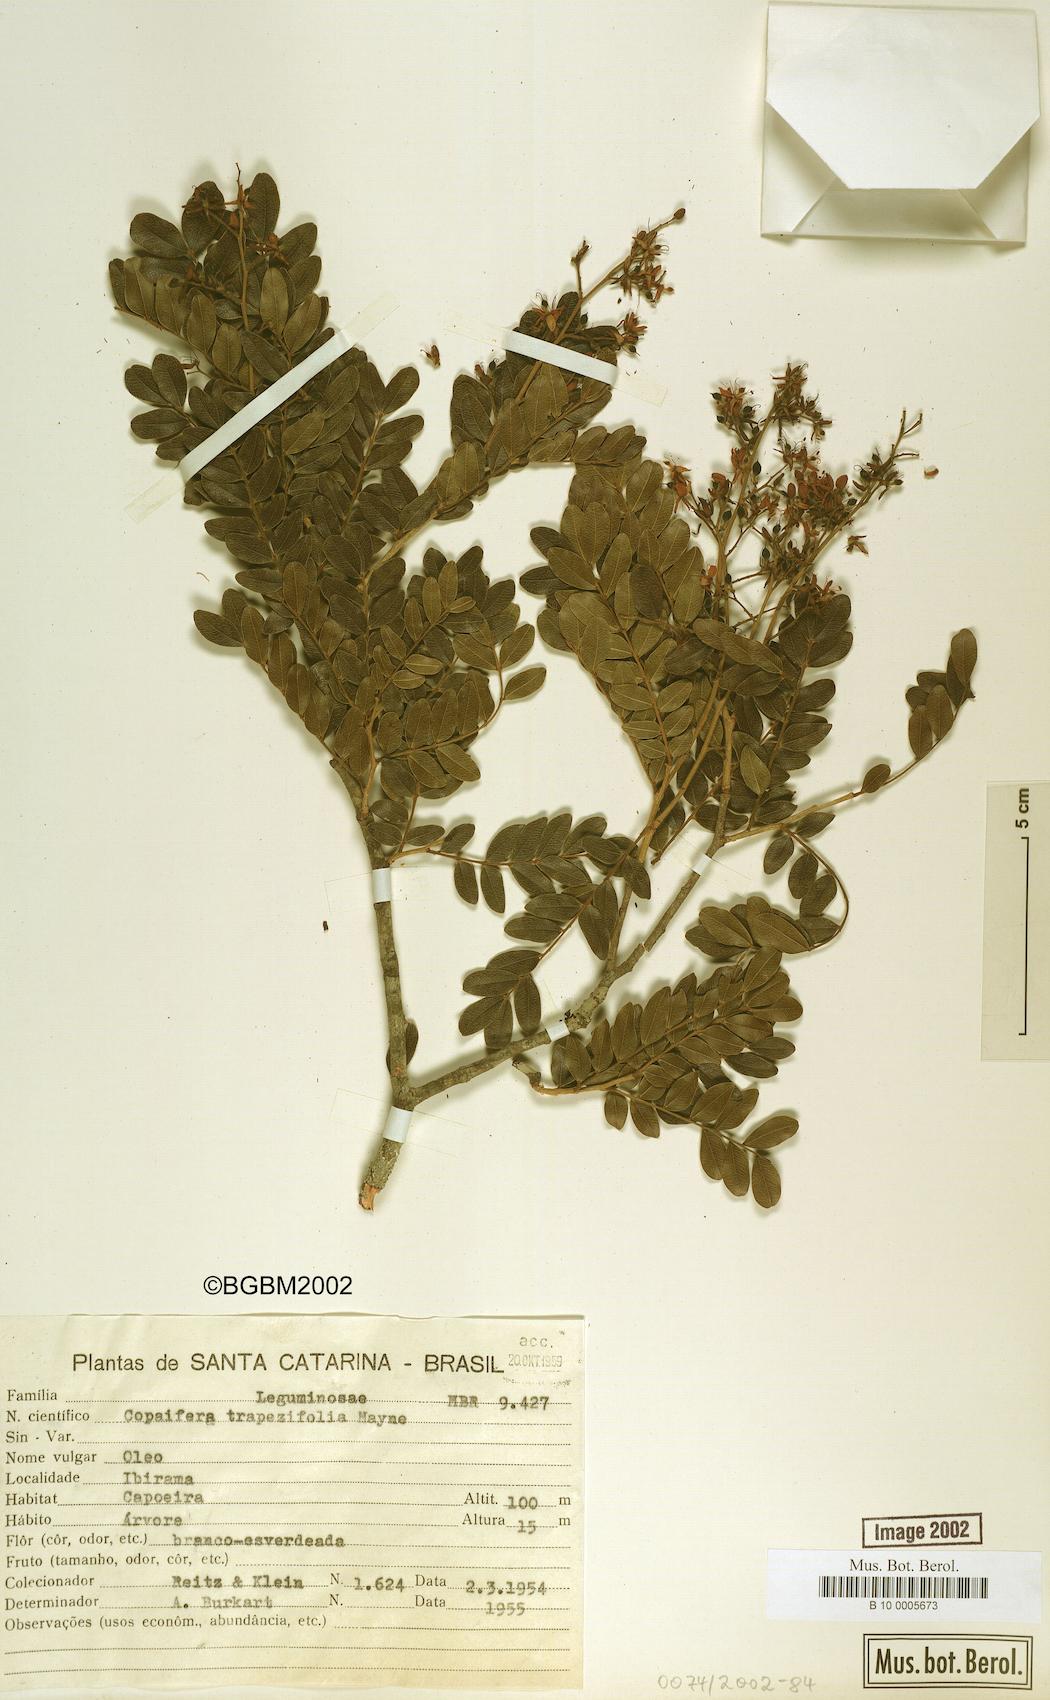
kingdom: Plantae
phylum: Tracheophyta
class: Magnoliopsida
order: Fabales
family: Fabaceae
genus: Copaifera
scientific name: Copaifera trapezifolia
